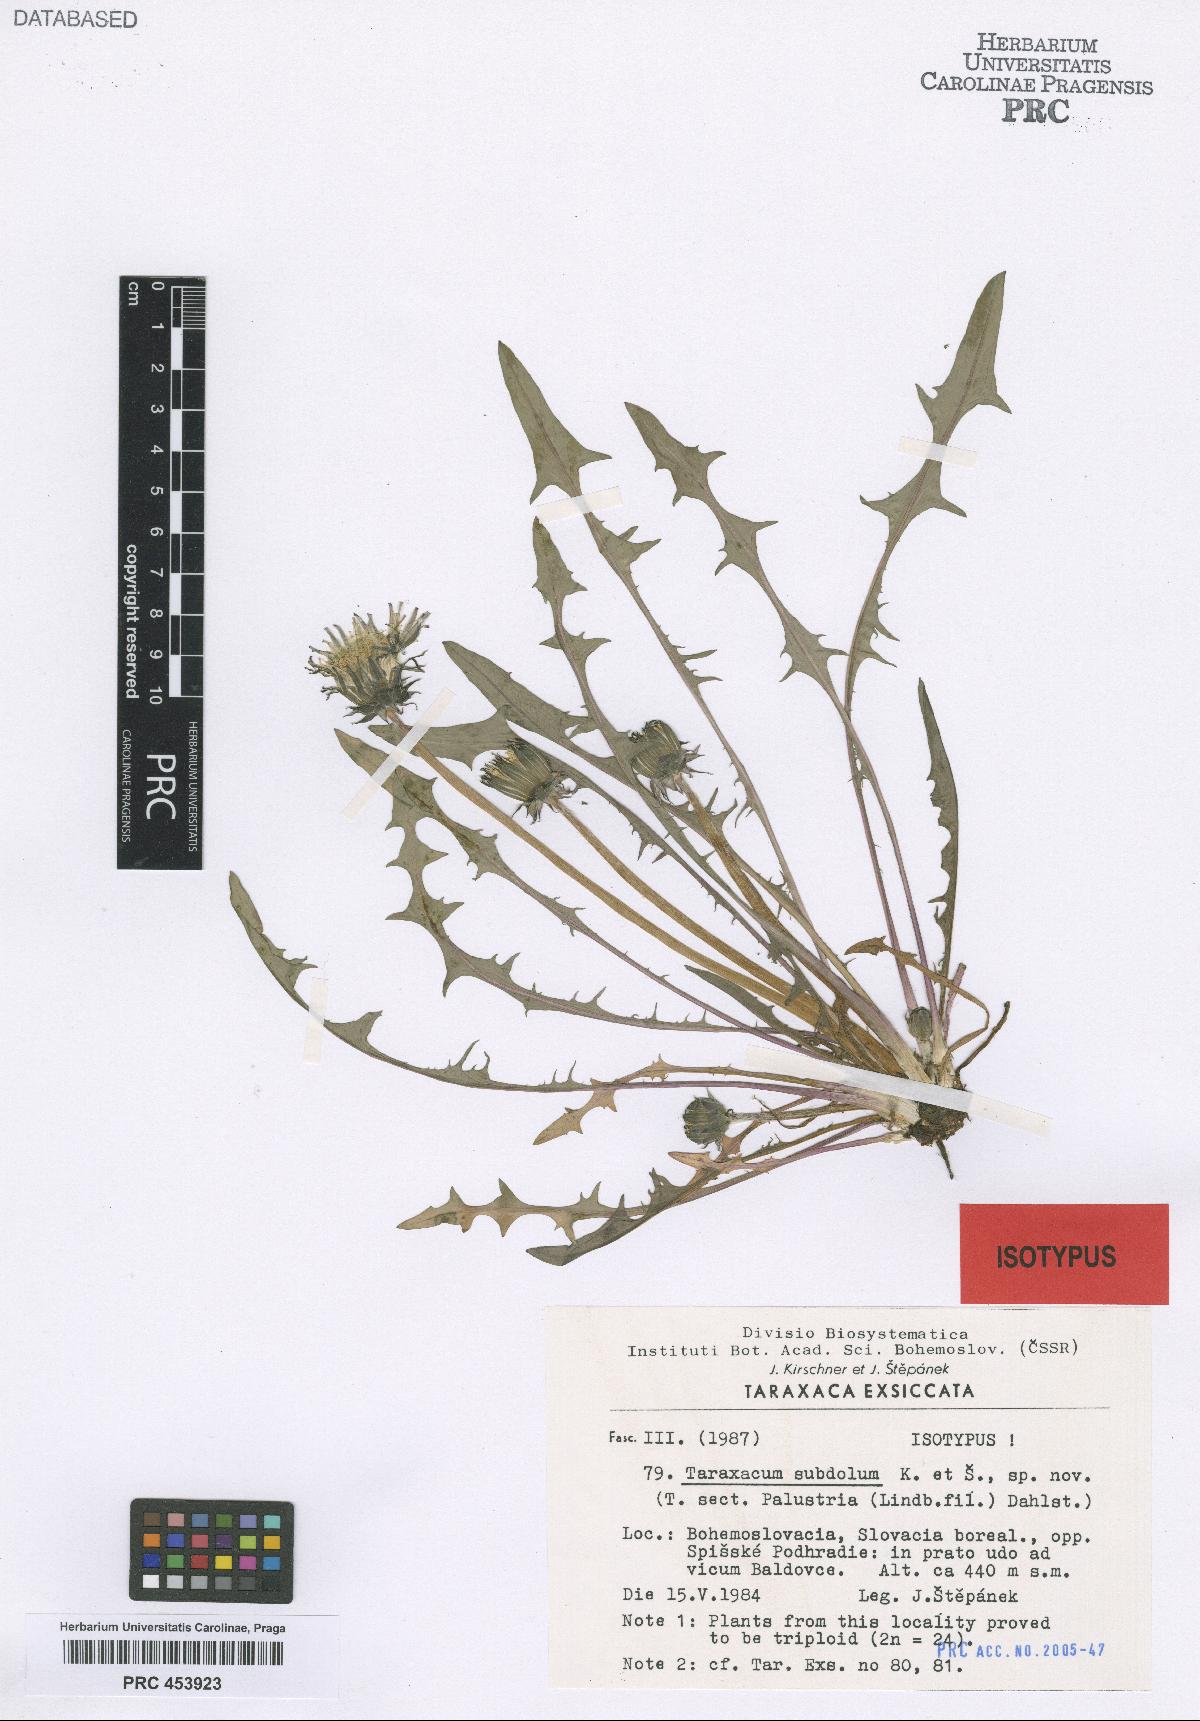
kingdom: Plantae
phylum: Tracheophyta
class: Magnoliopsida
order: Asterales
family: Asteraceae
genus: Taraxacum
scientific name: Taraxacum subdolum
